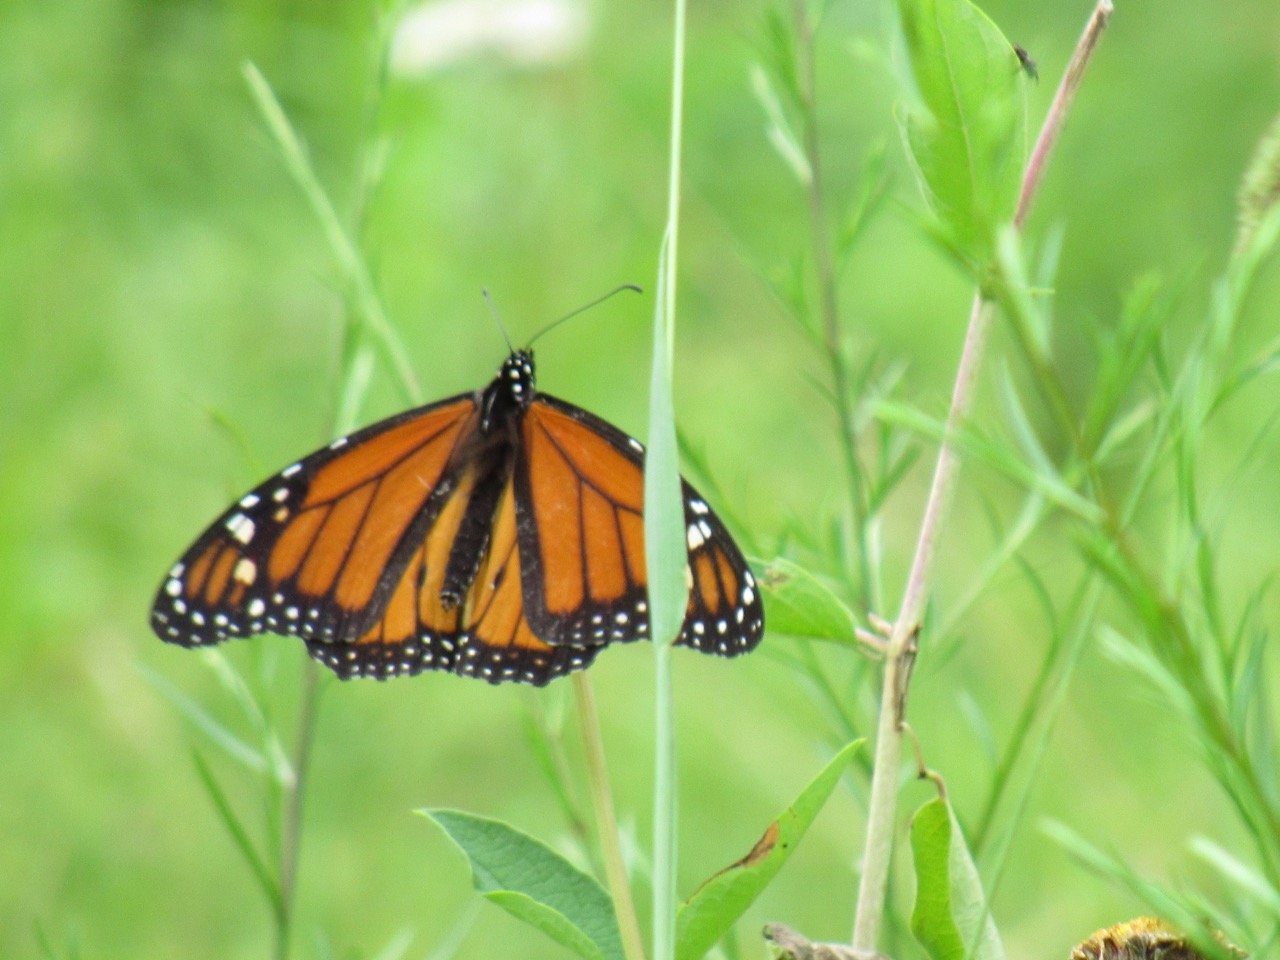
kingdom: Animalia
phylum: Arthropoda
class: Insecta
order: Lepidoptera
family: Nymphalidae
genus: Danaus
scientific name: Danaus plexippus
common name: Monarch
